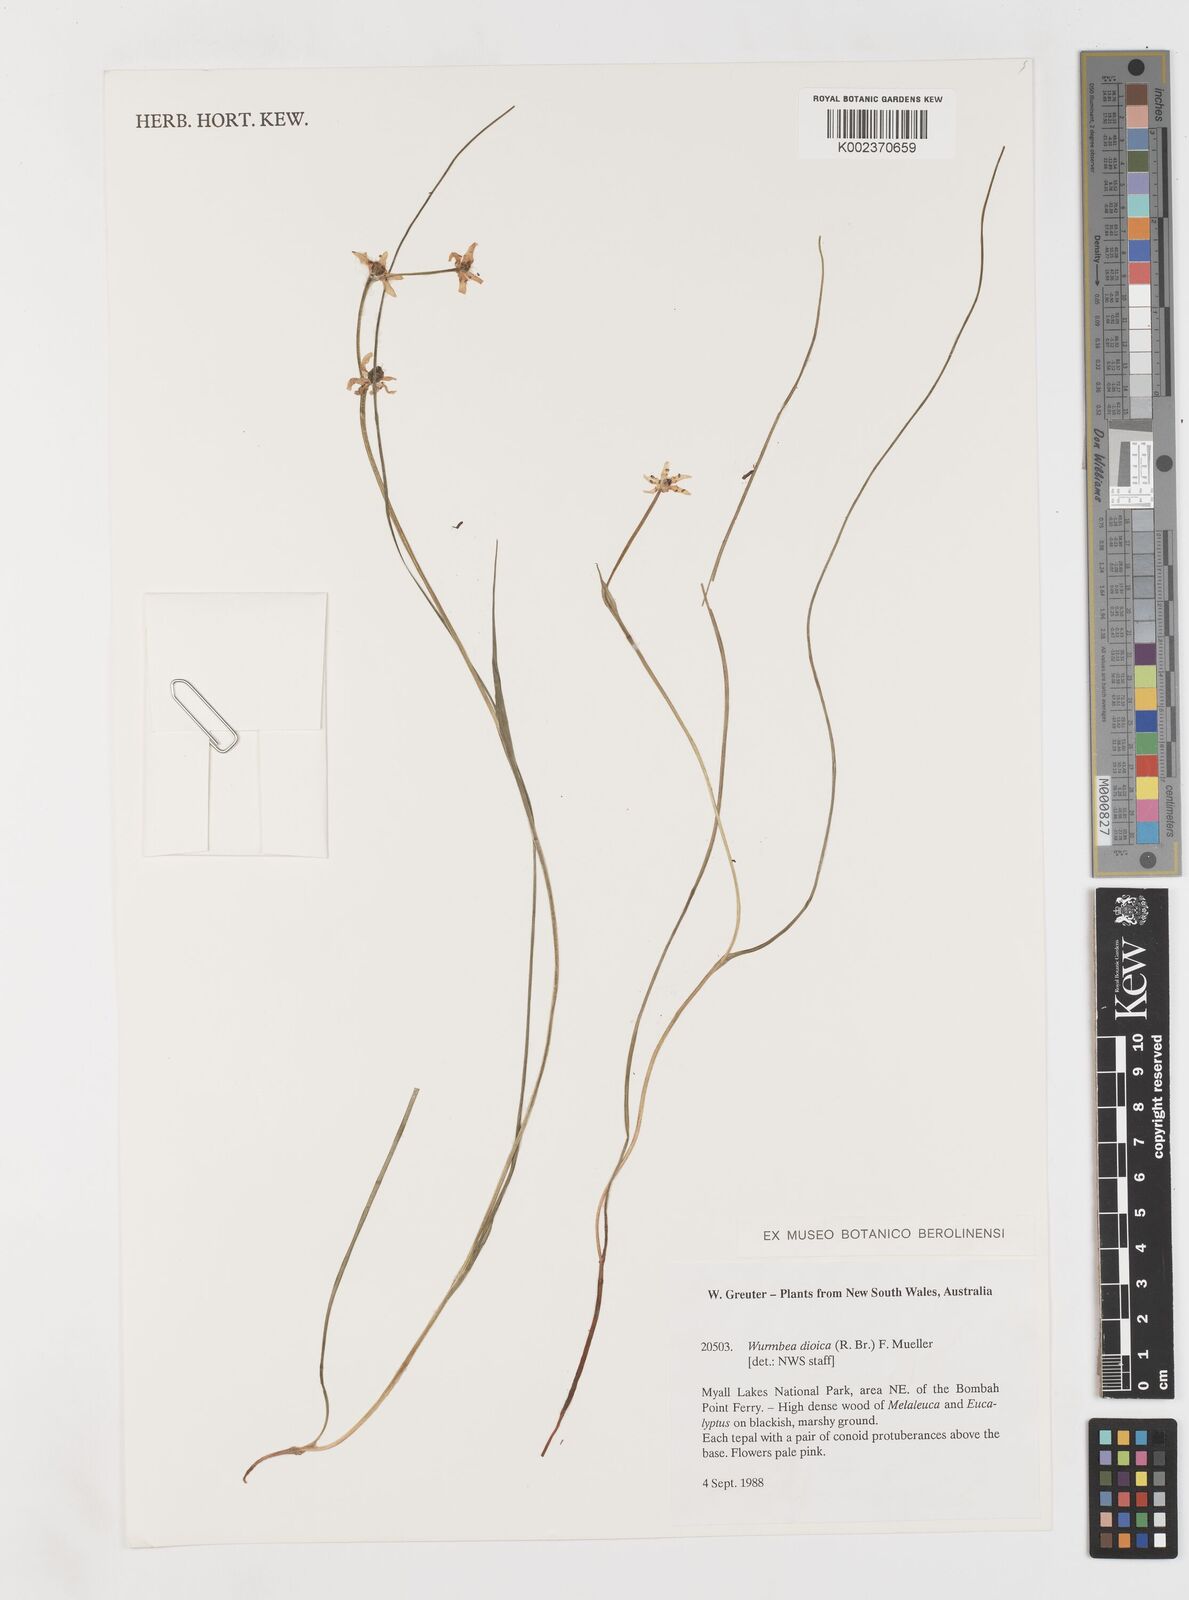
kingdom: Plantae
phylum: Tracheophyta
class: Liliopsida
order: Liliales
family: Colchicaceae
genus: Wurmbea
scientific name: Wurmbea dioica
